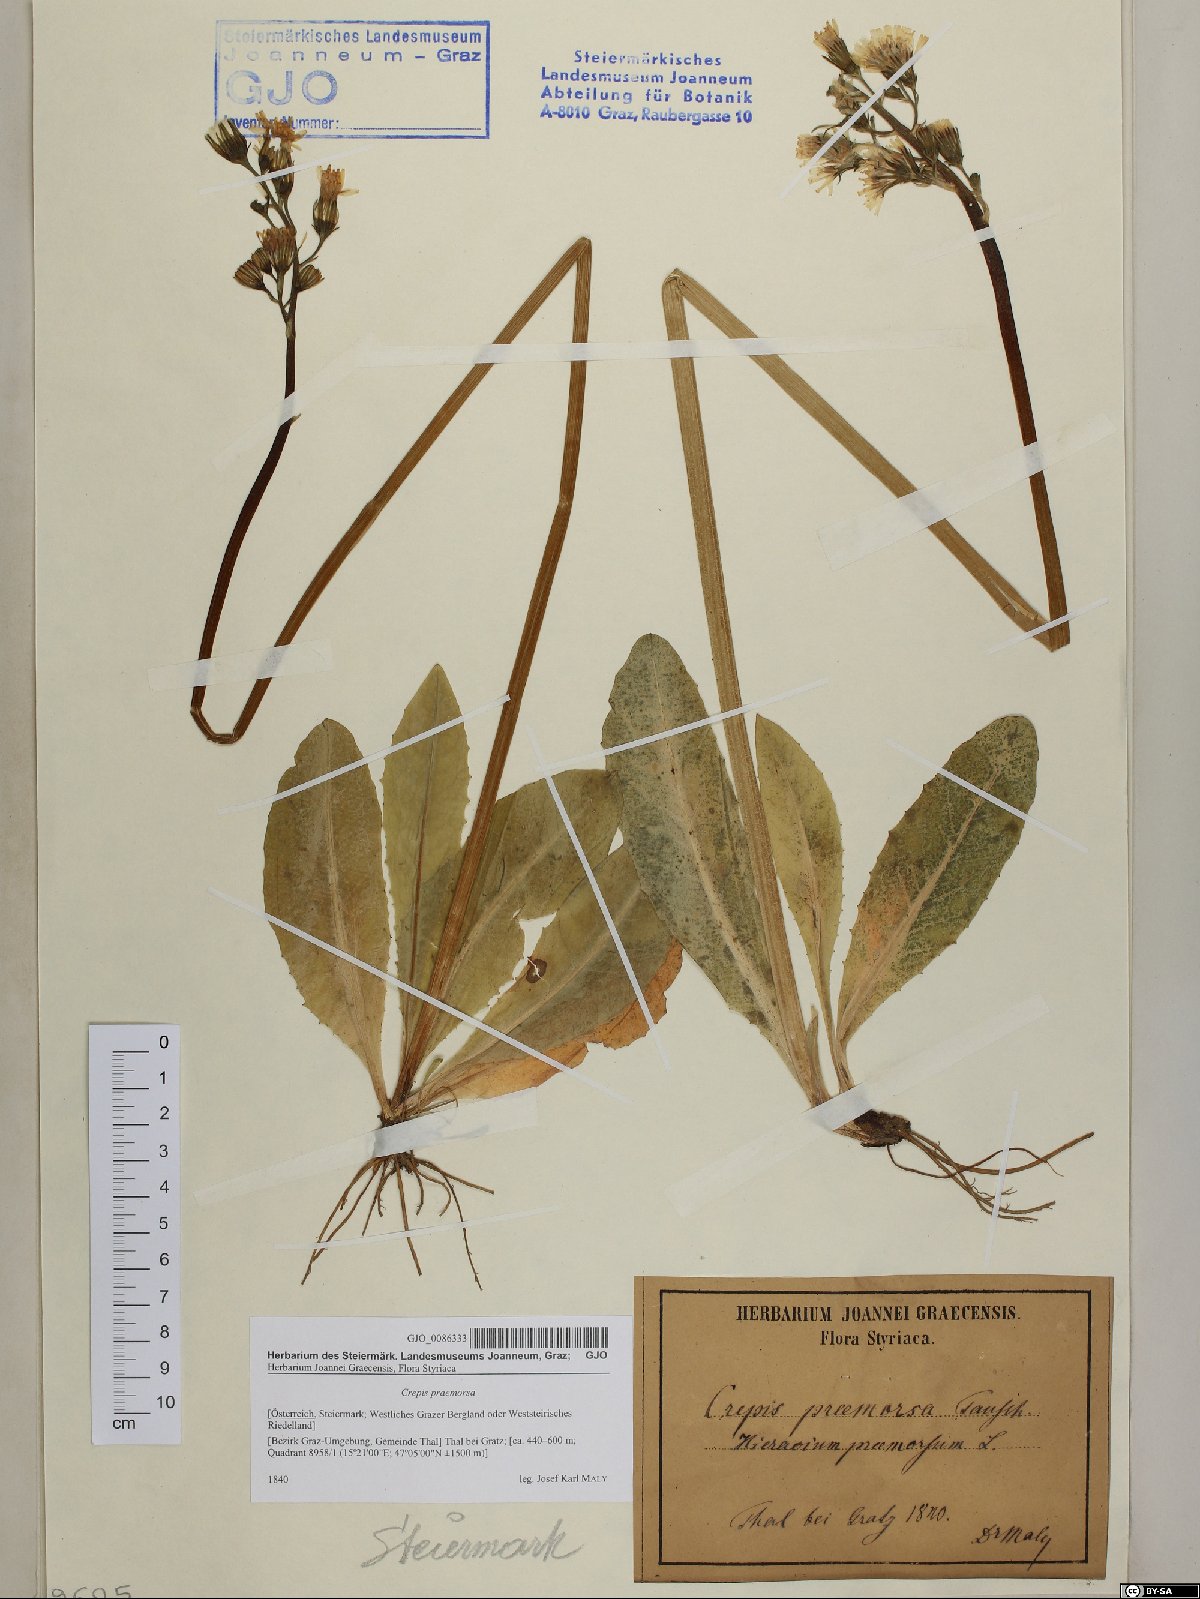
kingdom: Plantae
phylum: Tracheophyta
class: Magnoliopsida
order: Asterales
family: Asteraceae
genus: Crepis
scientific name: Crepis praemorsa
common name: Leafless hawk's-beard
